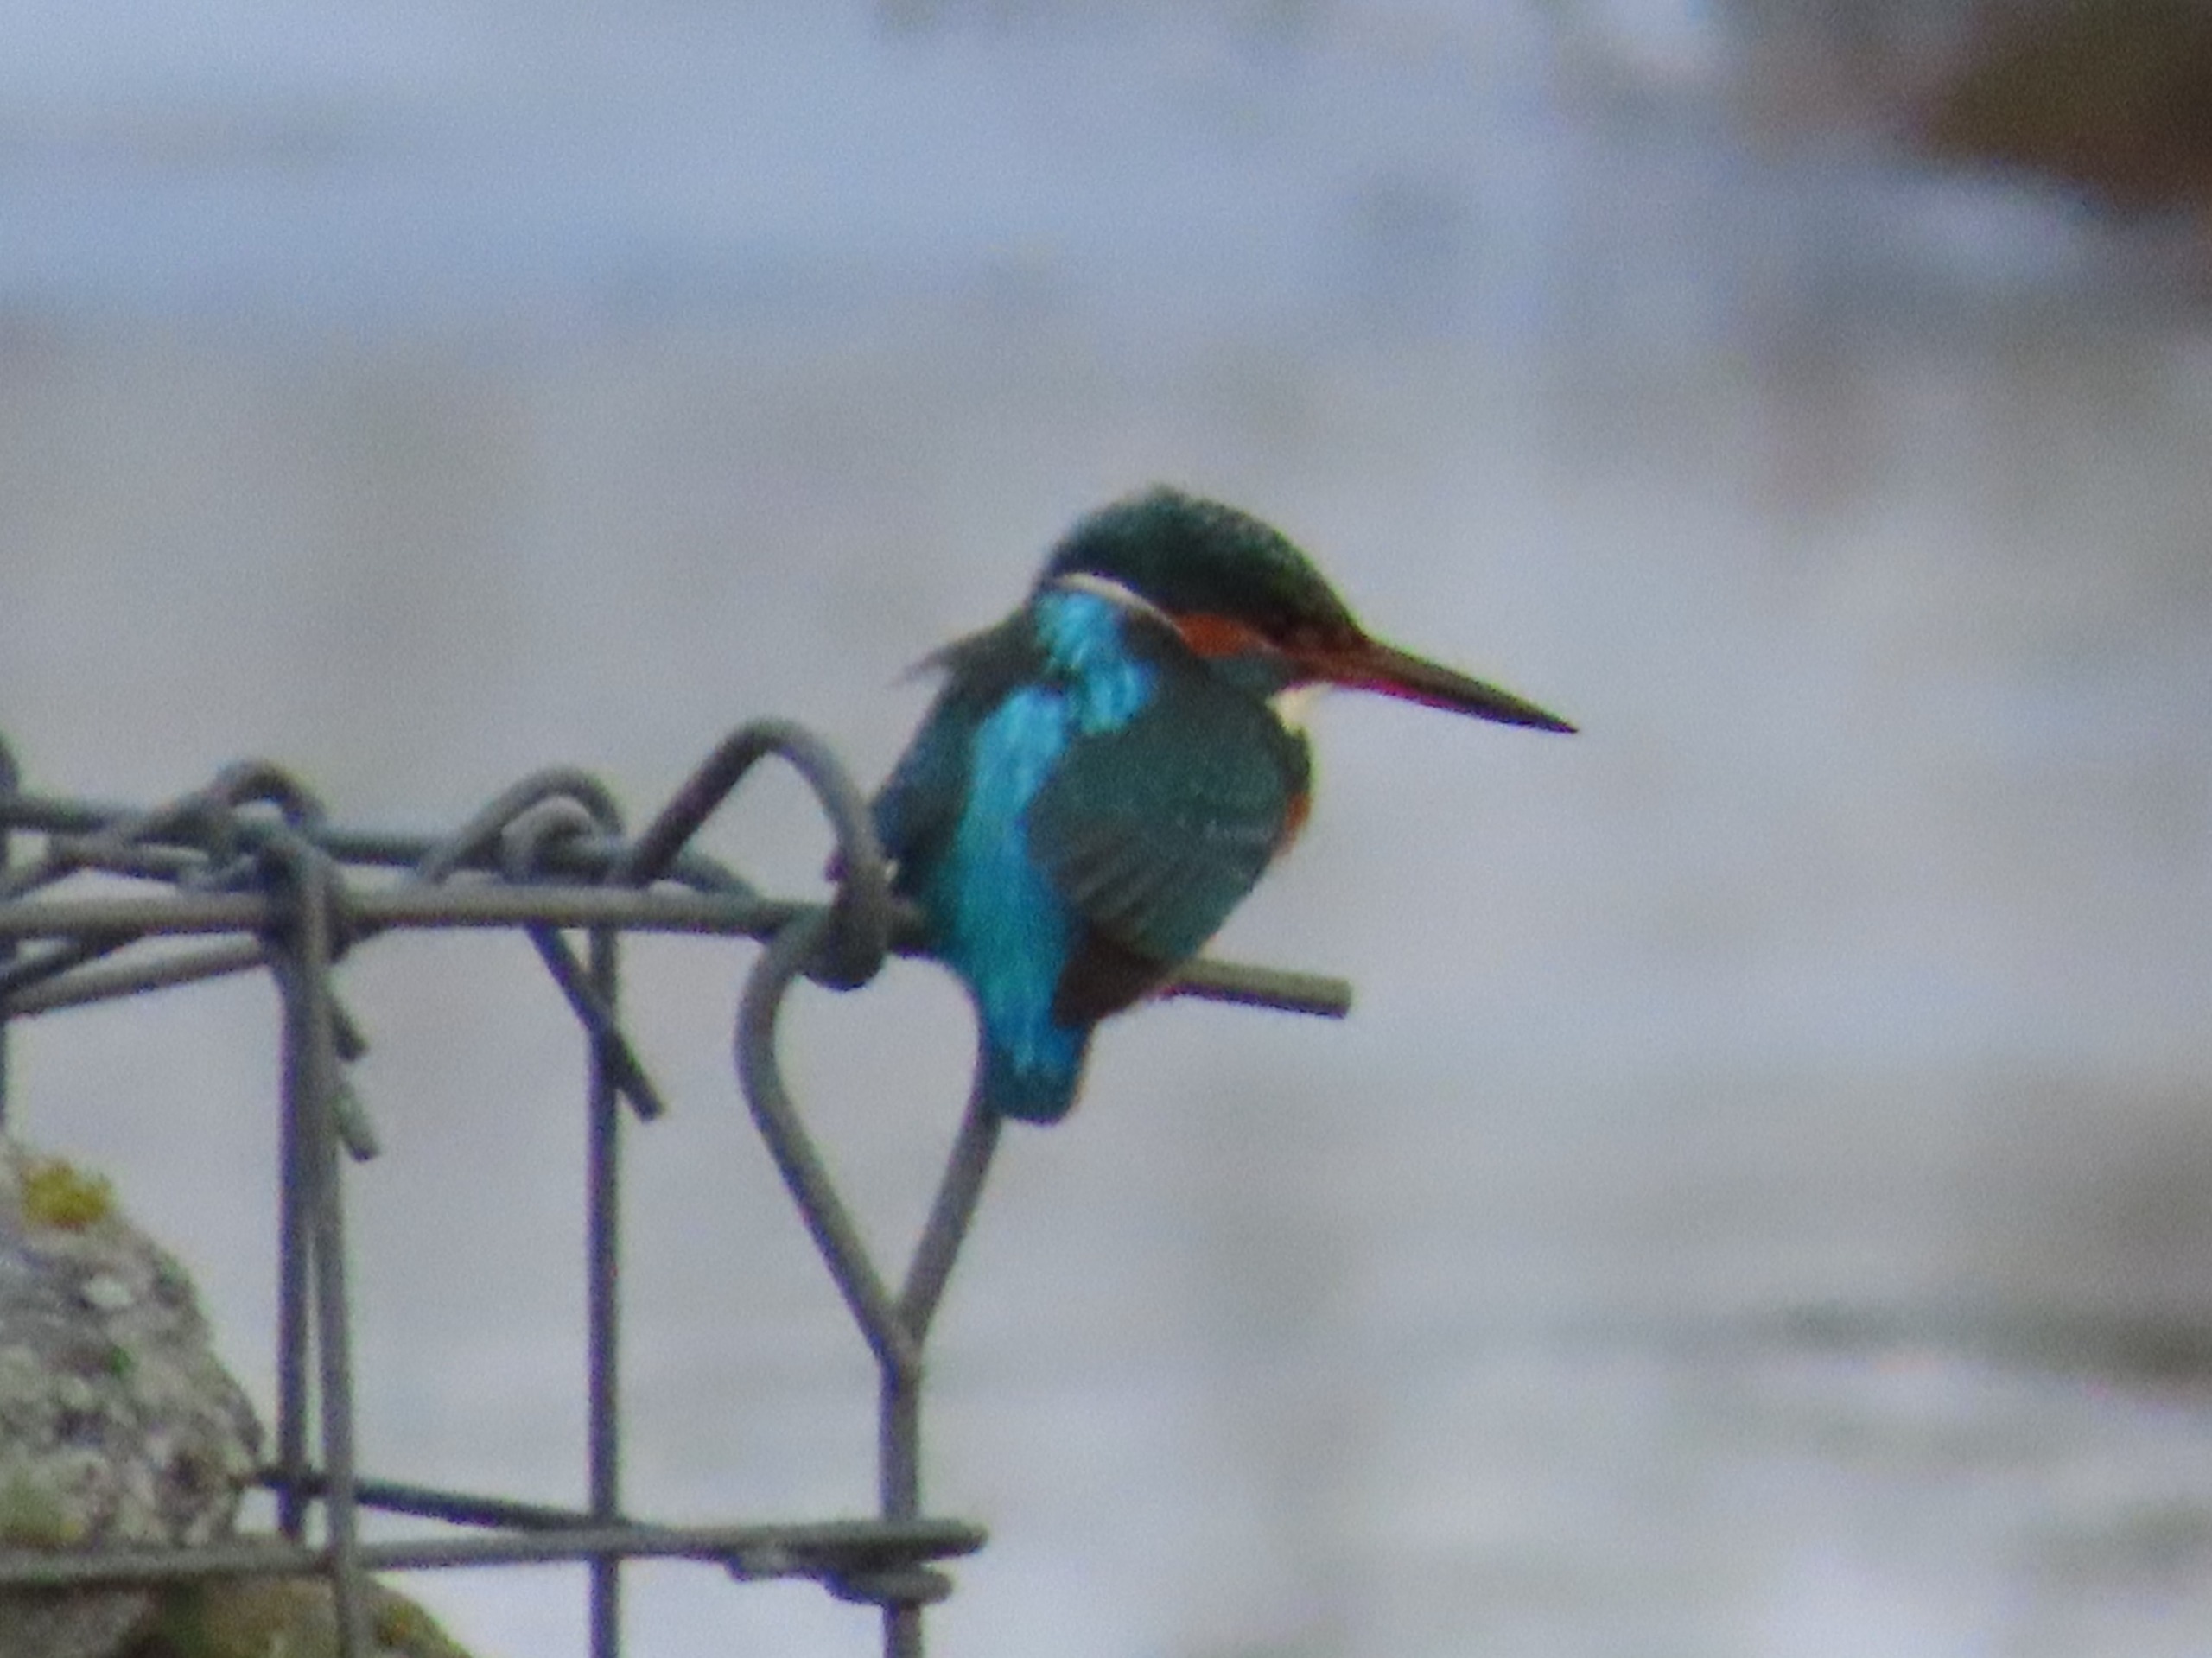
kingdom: Animalia
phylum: Chordata
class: Aves
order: Coraciiformes
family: Alcedinidae
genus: Alcedo
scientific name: Alcedo atthis
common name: Isfugl
